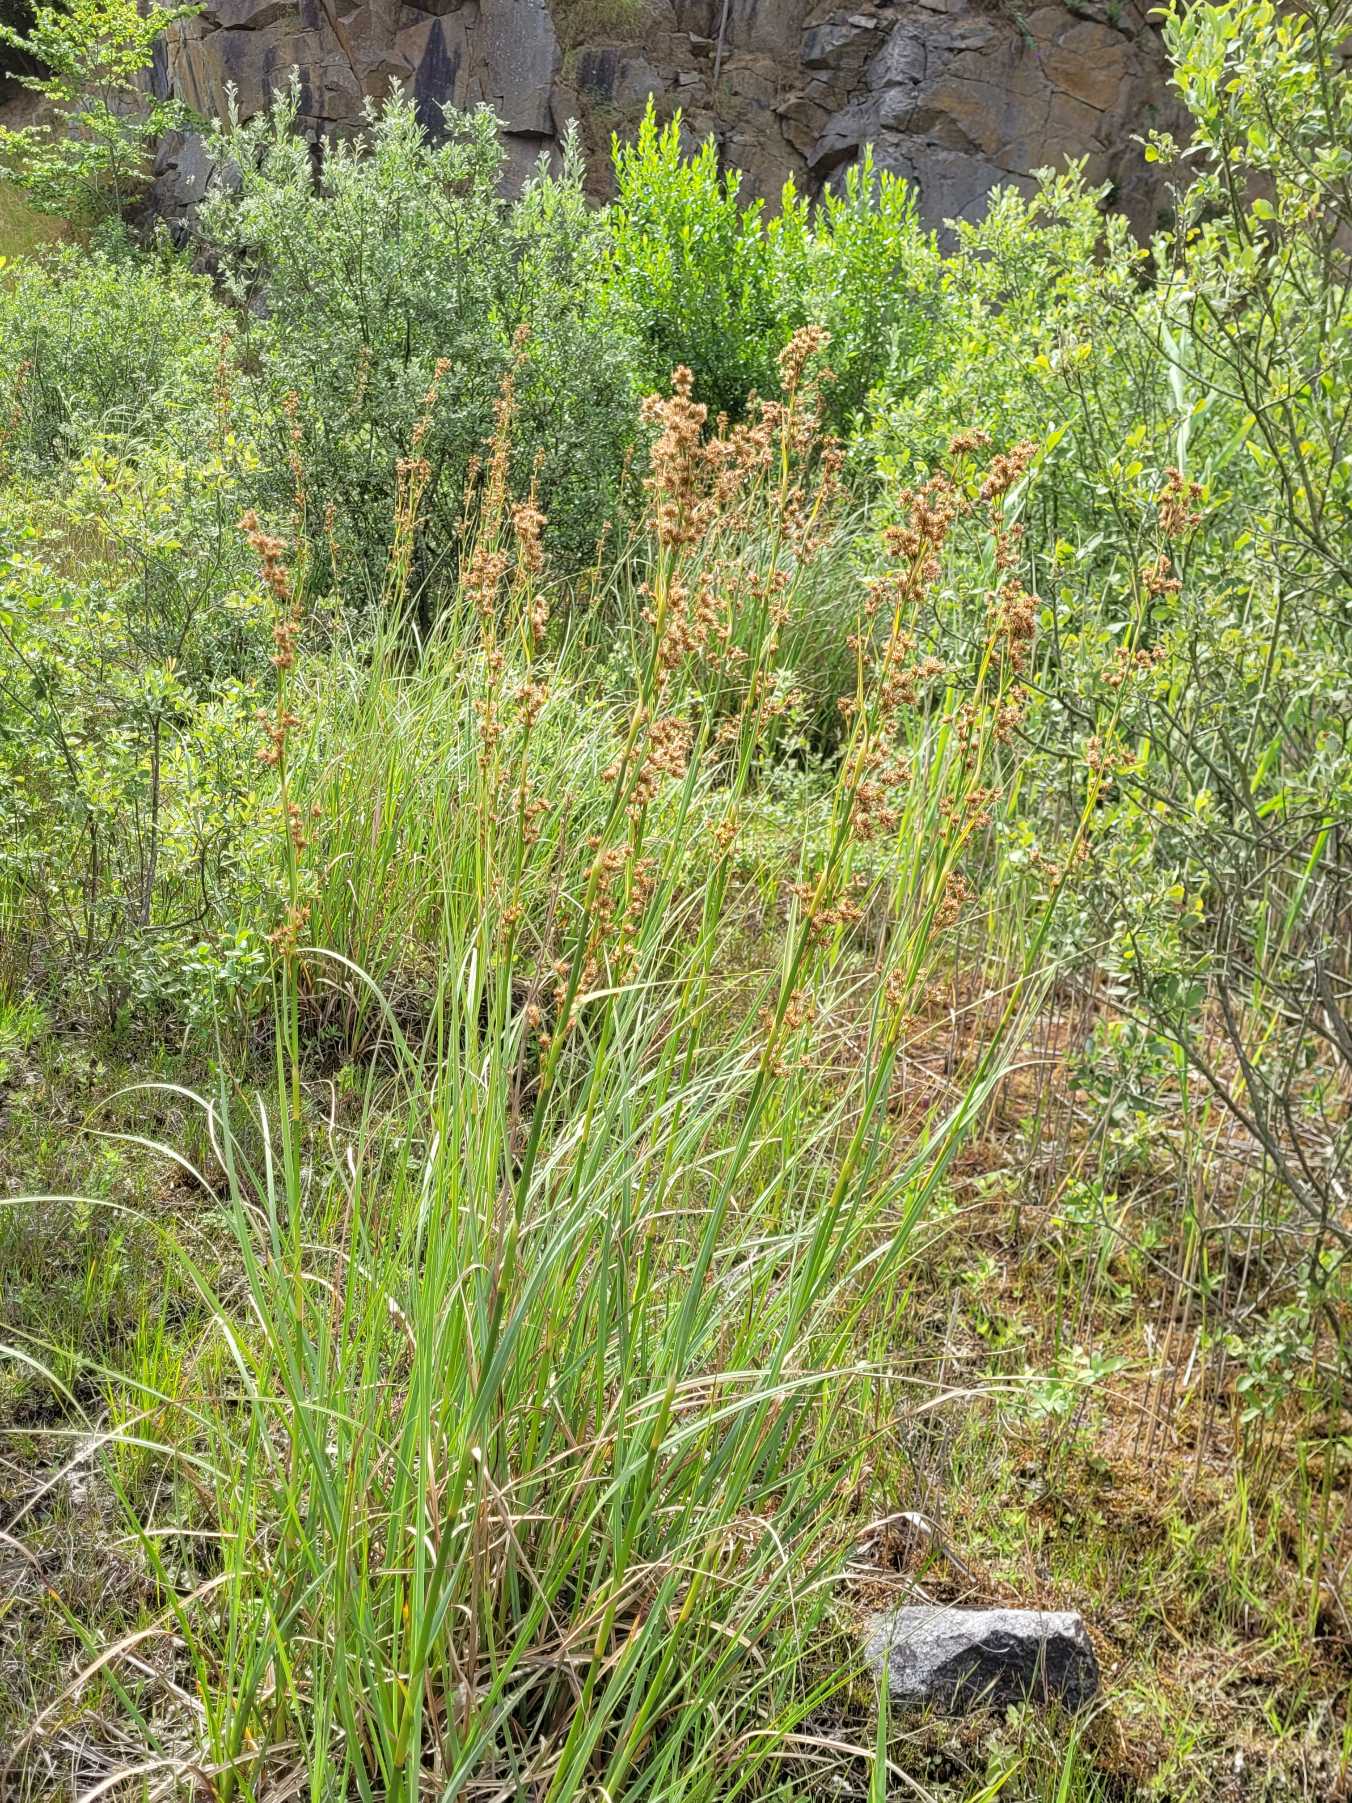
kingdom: Plantae
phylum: Tracheophyta
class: Liliopsida
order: Poales
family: Cyperaceae
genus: Cladium
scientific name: Cladium mariscus
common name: Hvas avneknippe
